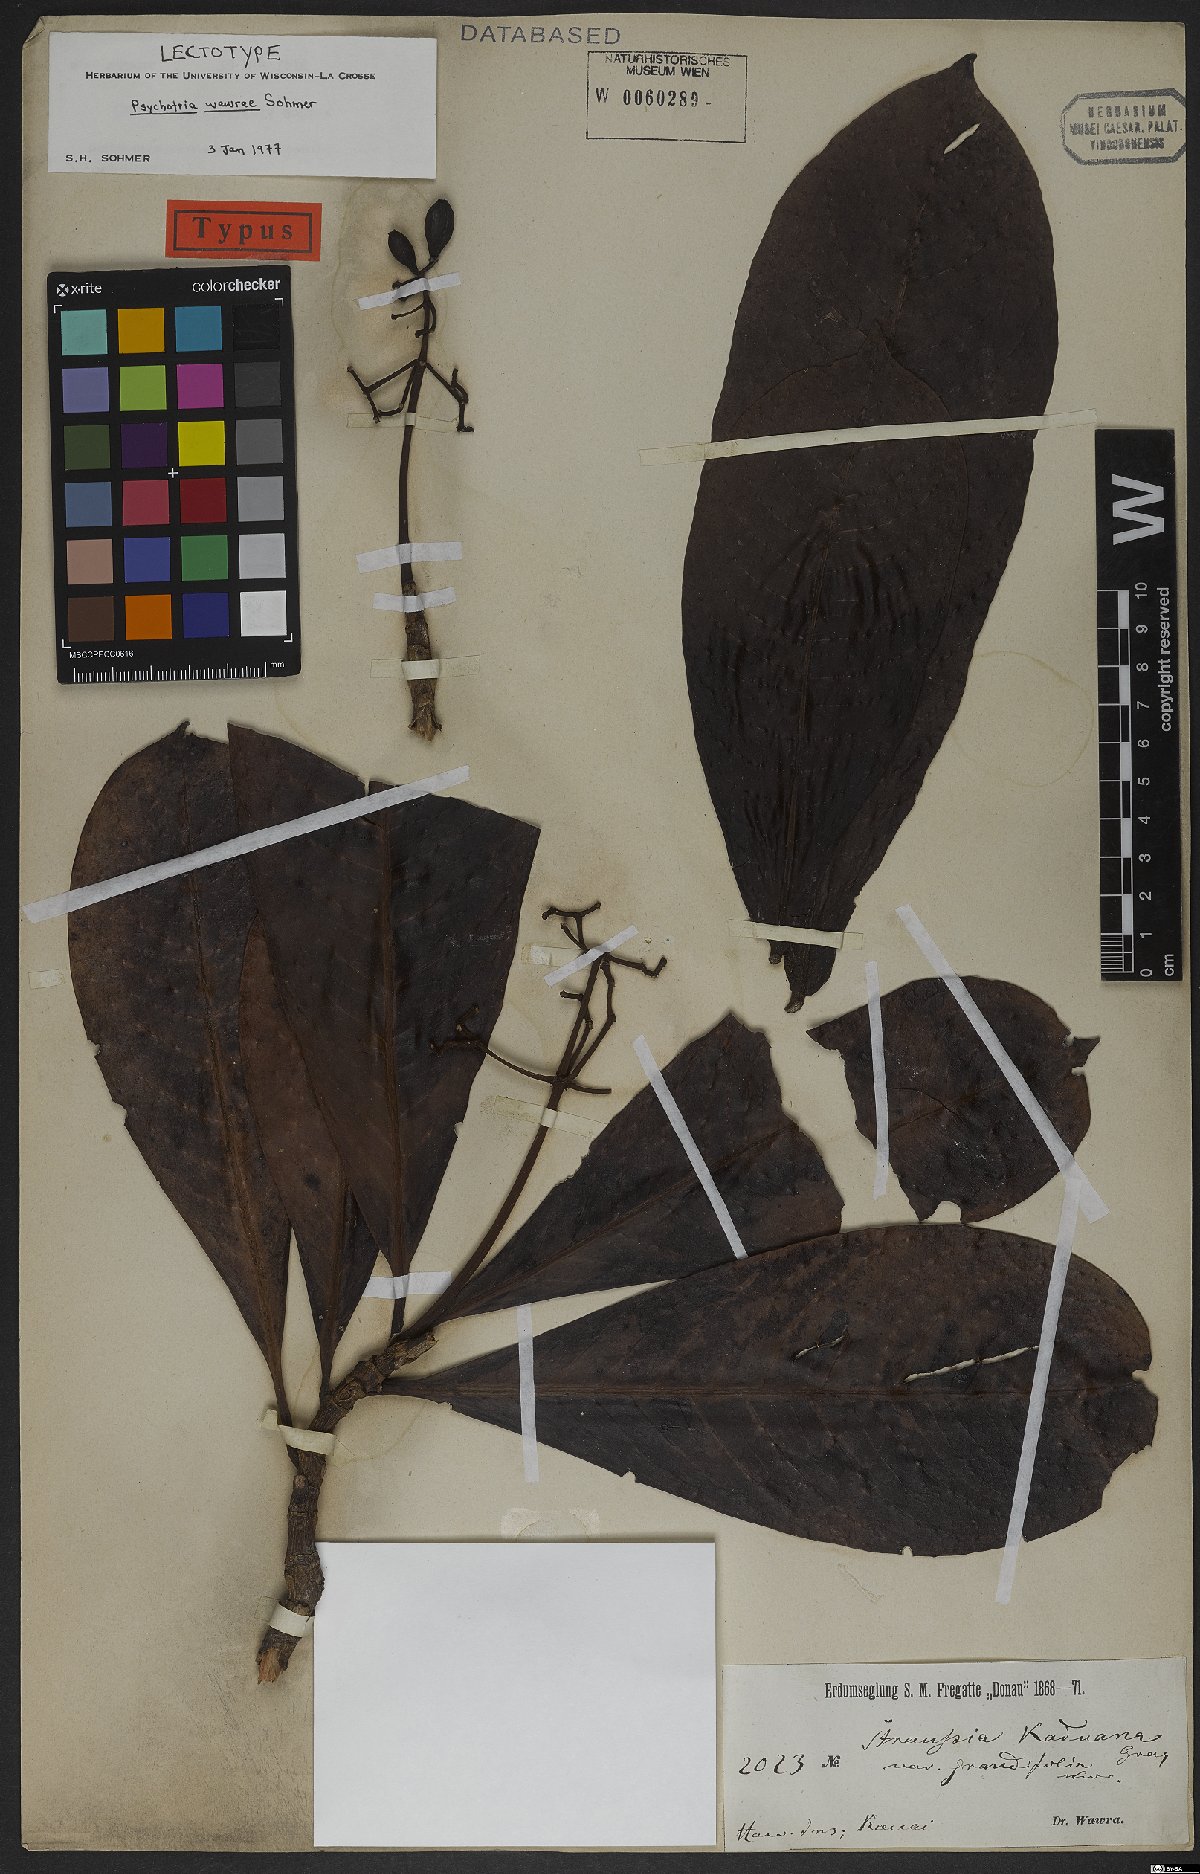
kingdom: Plantae
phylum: Tracheophyta
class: Magnoliopsida
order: Gentianales
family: Rubiaceae
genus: Psychotria
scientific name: Psychotria wawrana
